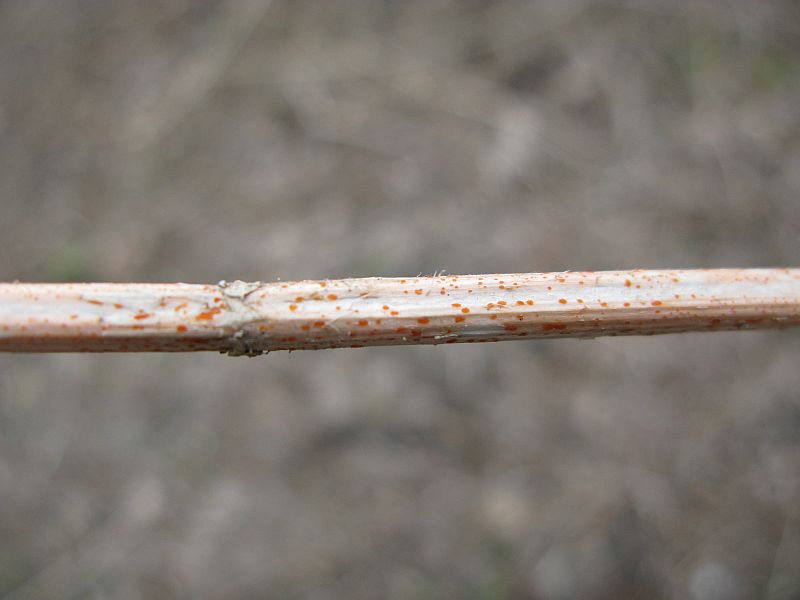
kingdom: Fungi
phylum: Ascomycota
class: Leotiomycetes
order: Helotiales
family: Calloriaceae
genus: Calloria
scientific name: Calloria urticae
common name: nælde-orangeskive
